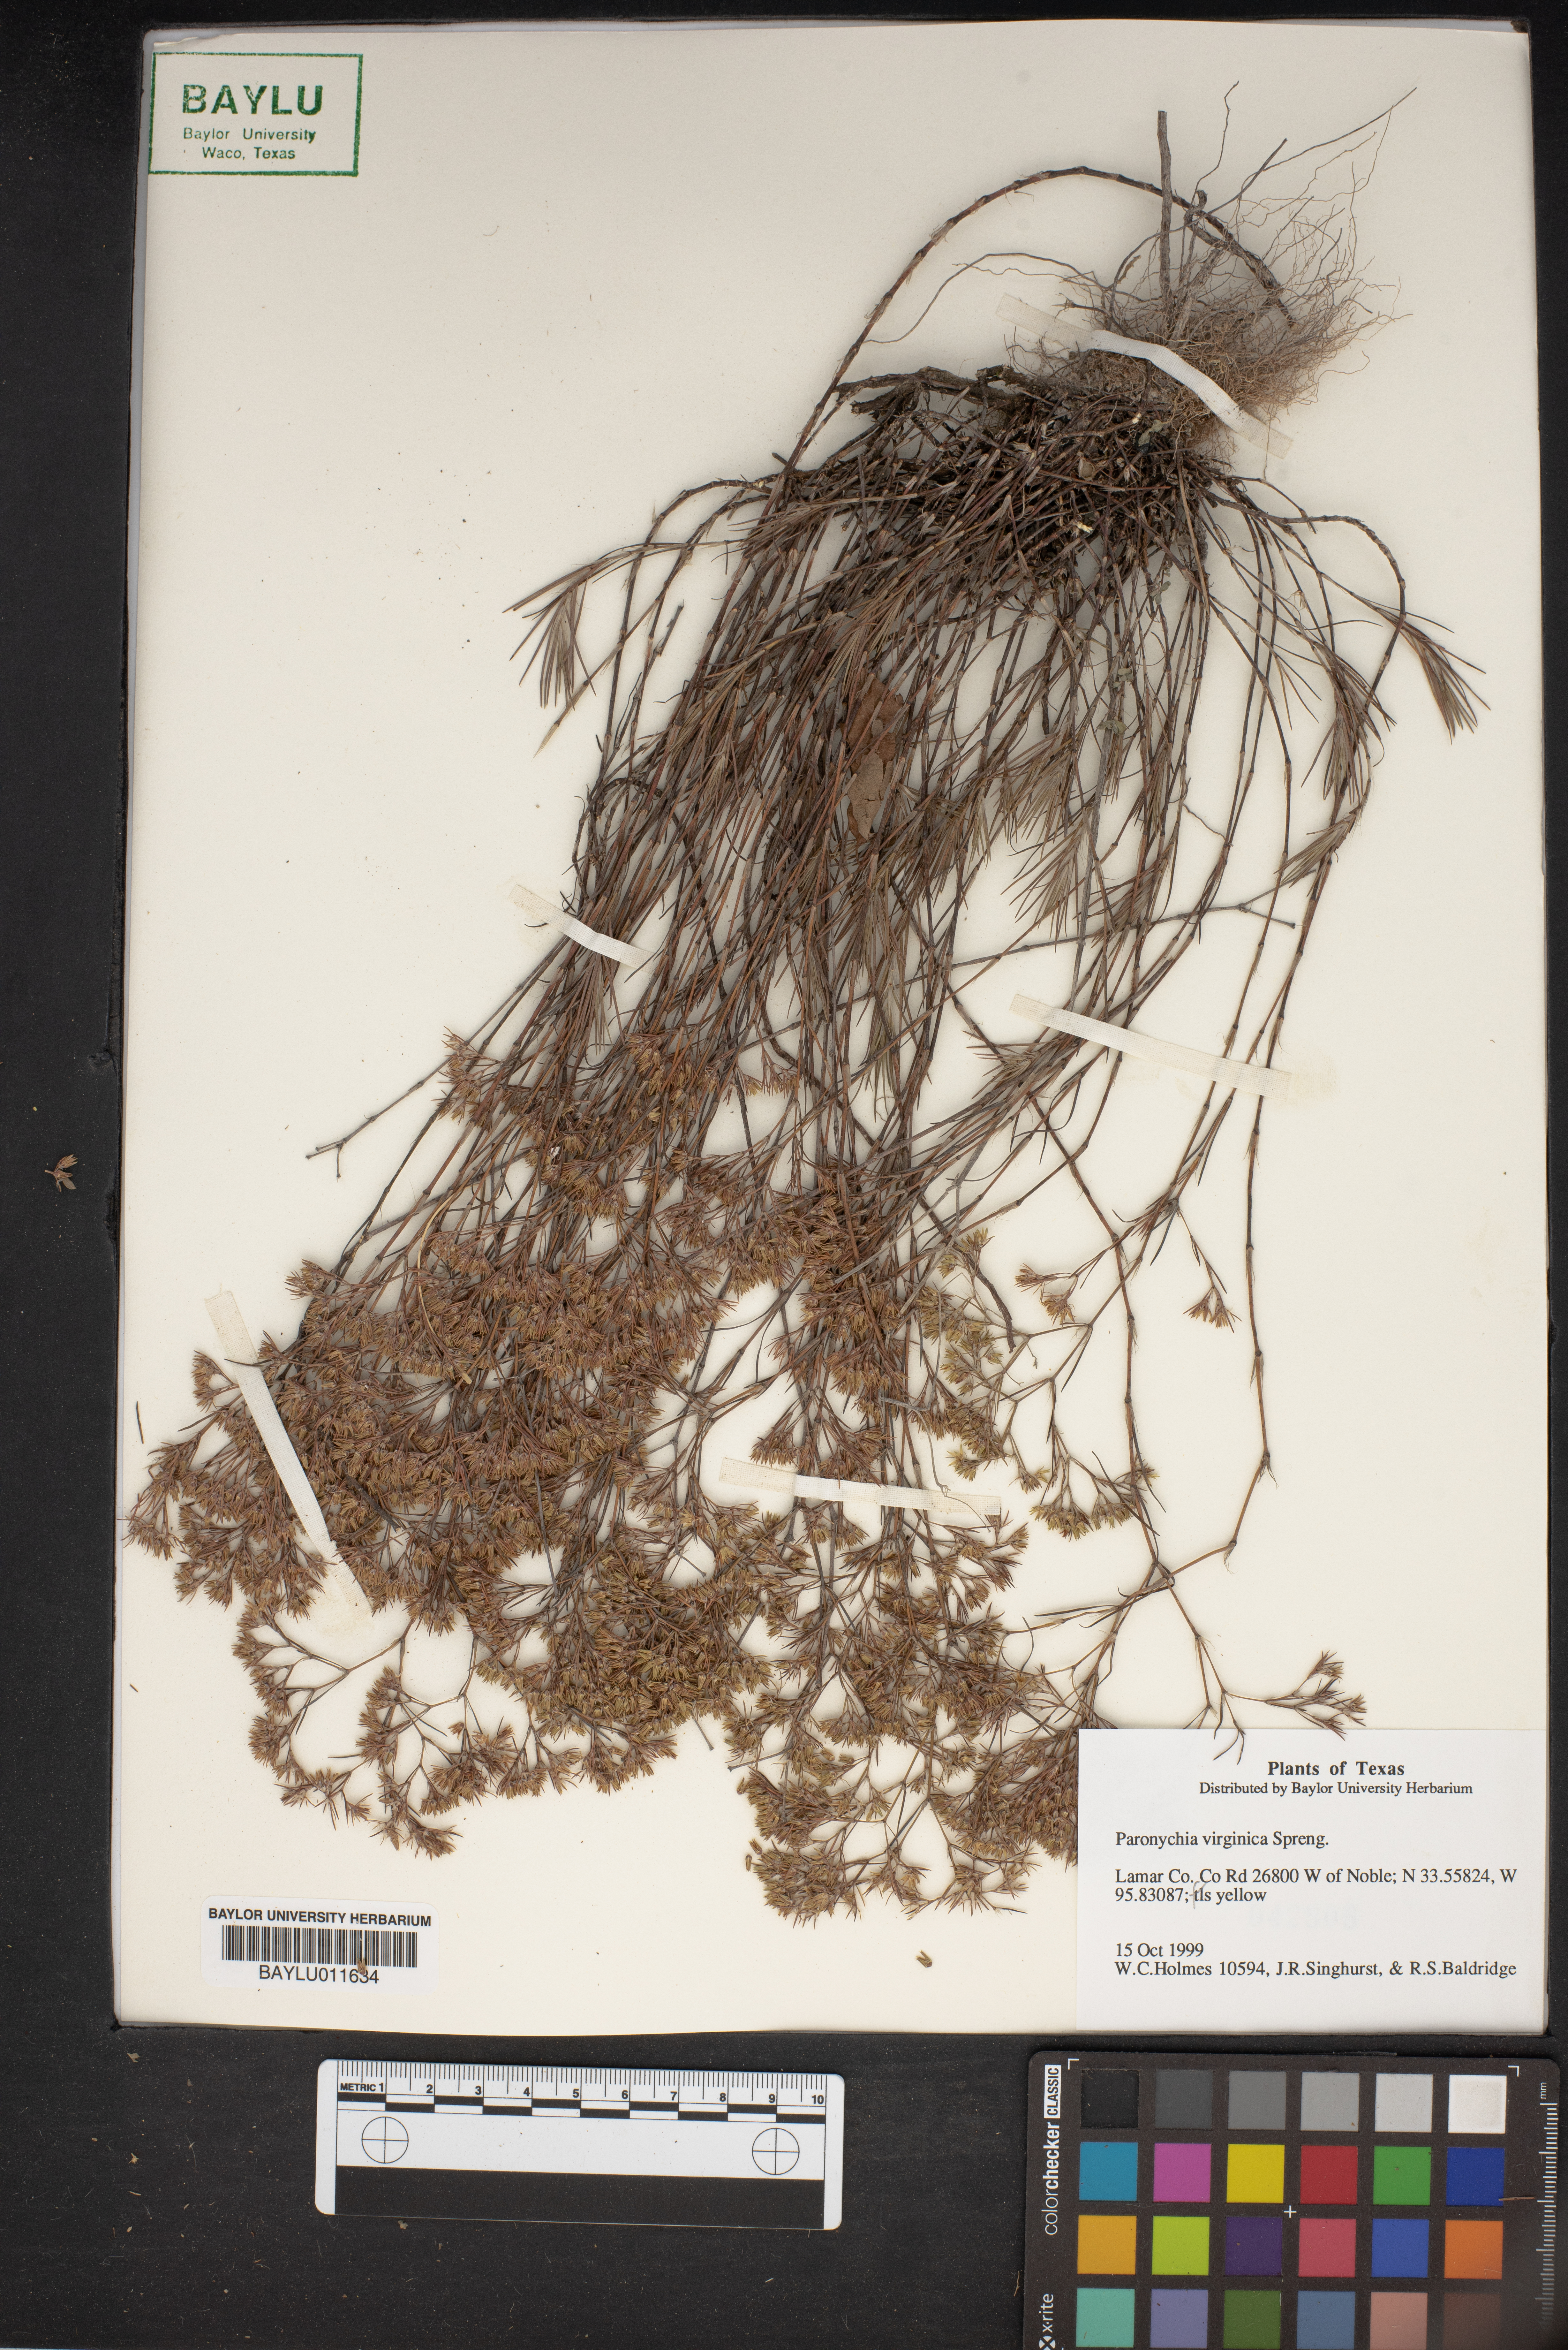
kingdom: Plantae
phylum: Tracheophyta
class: Magnoliopsida
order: Caryophyllales
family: Caryophyllaceae
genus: Paronychia
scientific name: Paronychia virginica
